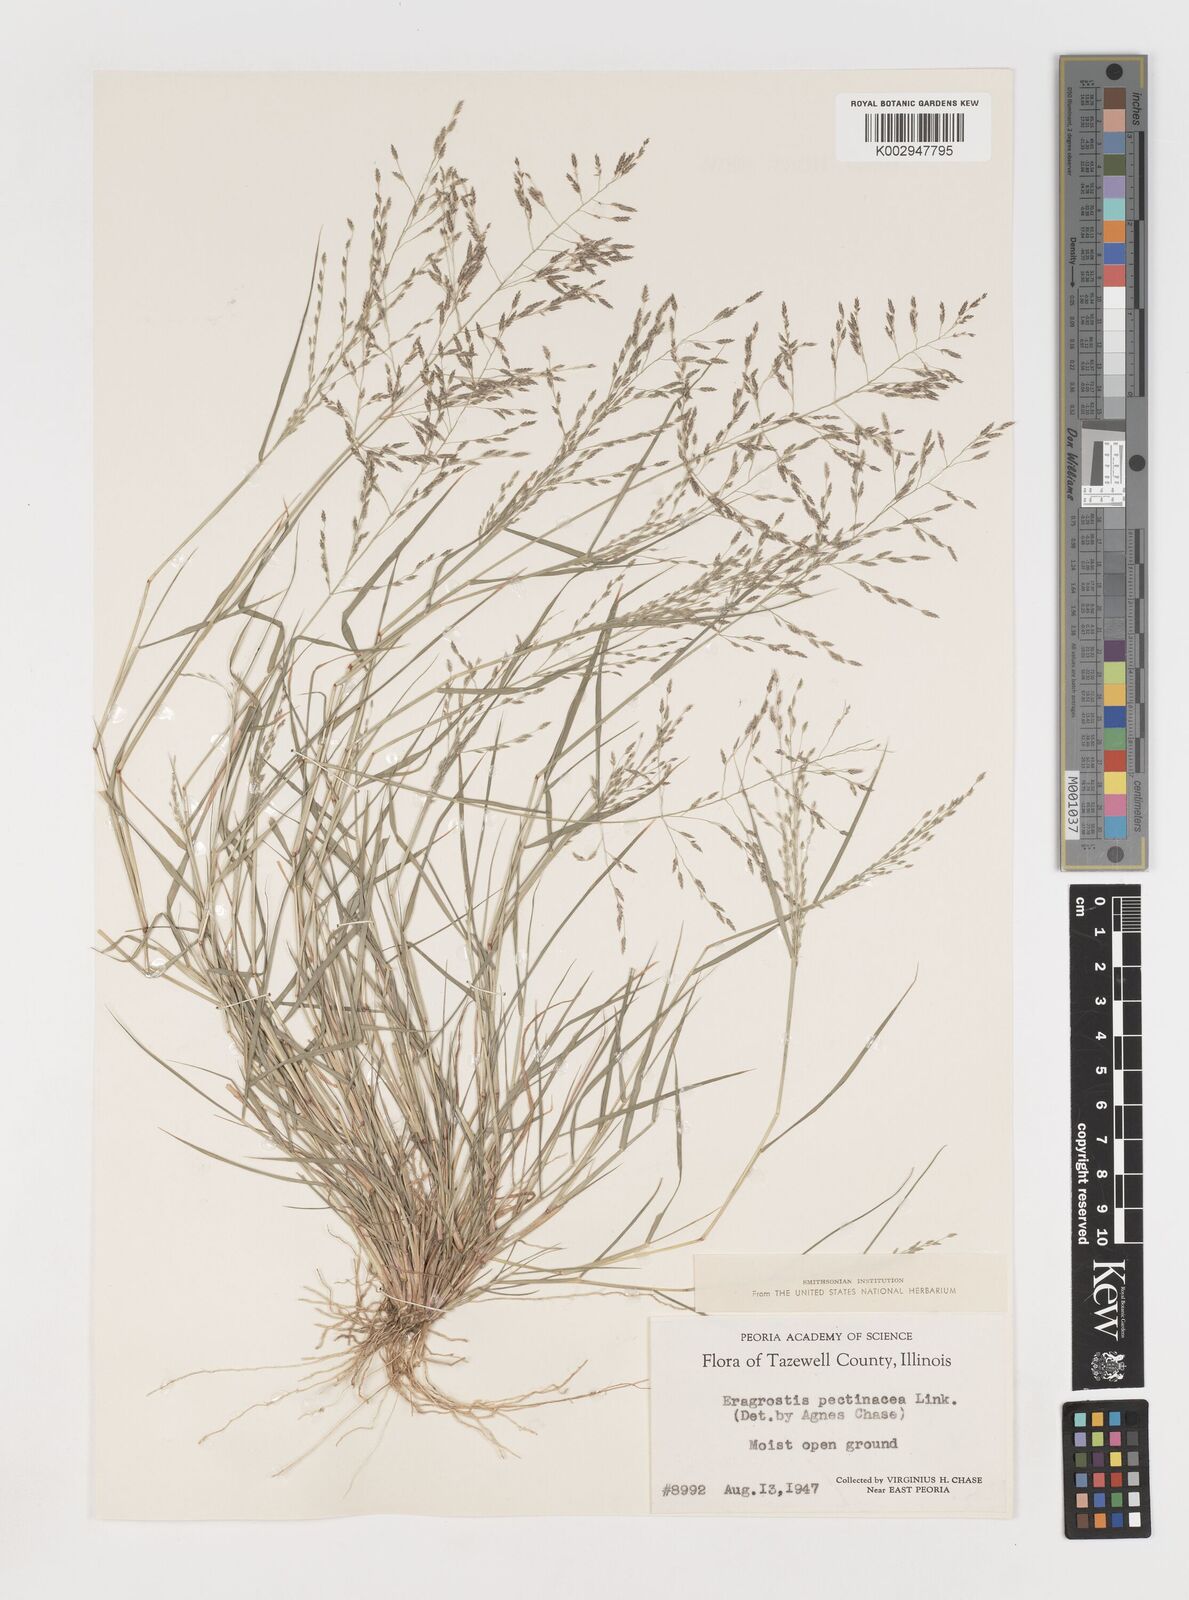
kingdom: Plantae
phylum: Tracheophyta
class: Liliopsida
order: Poales
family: Poaceae
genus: Eragrostis
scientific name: Eragrostis pectinacea
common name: Tufted lovegrass
